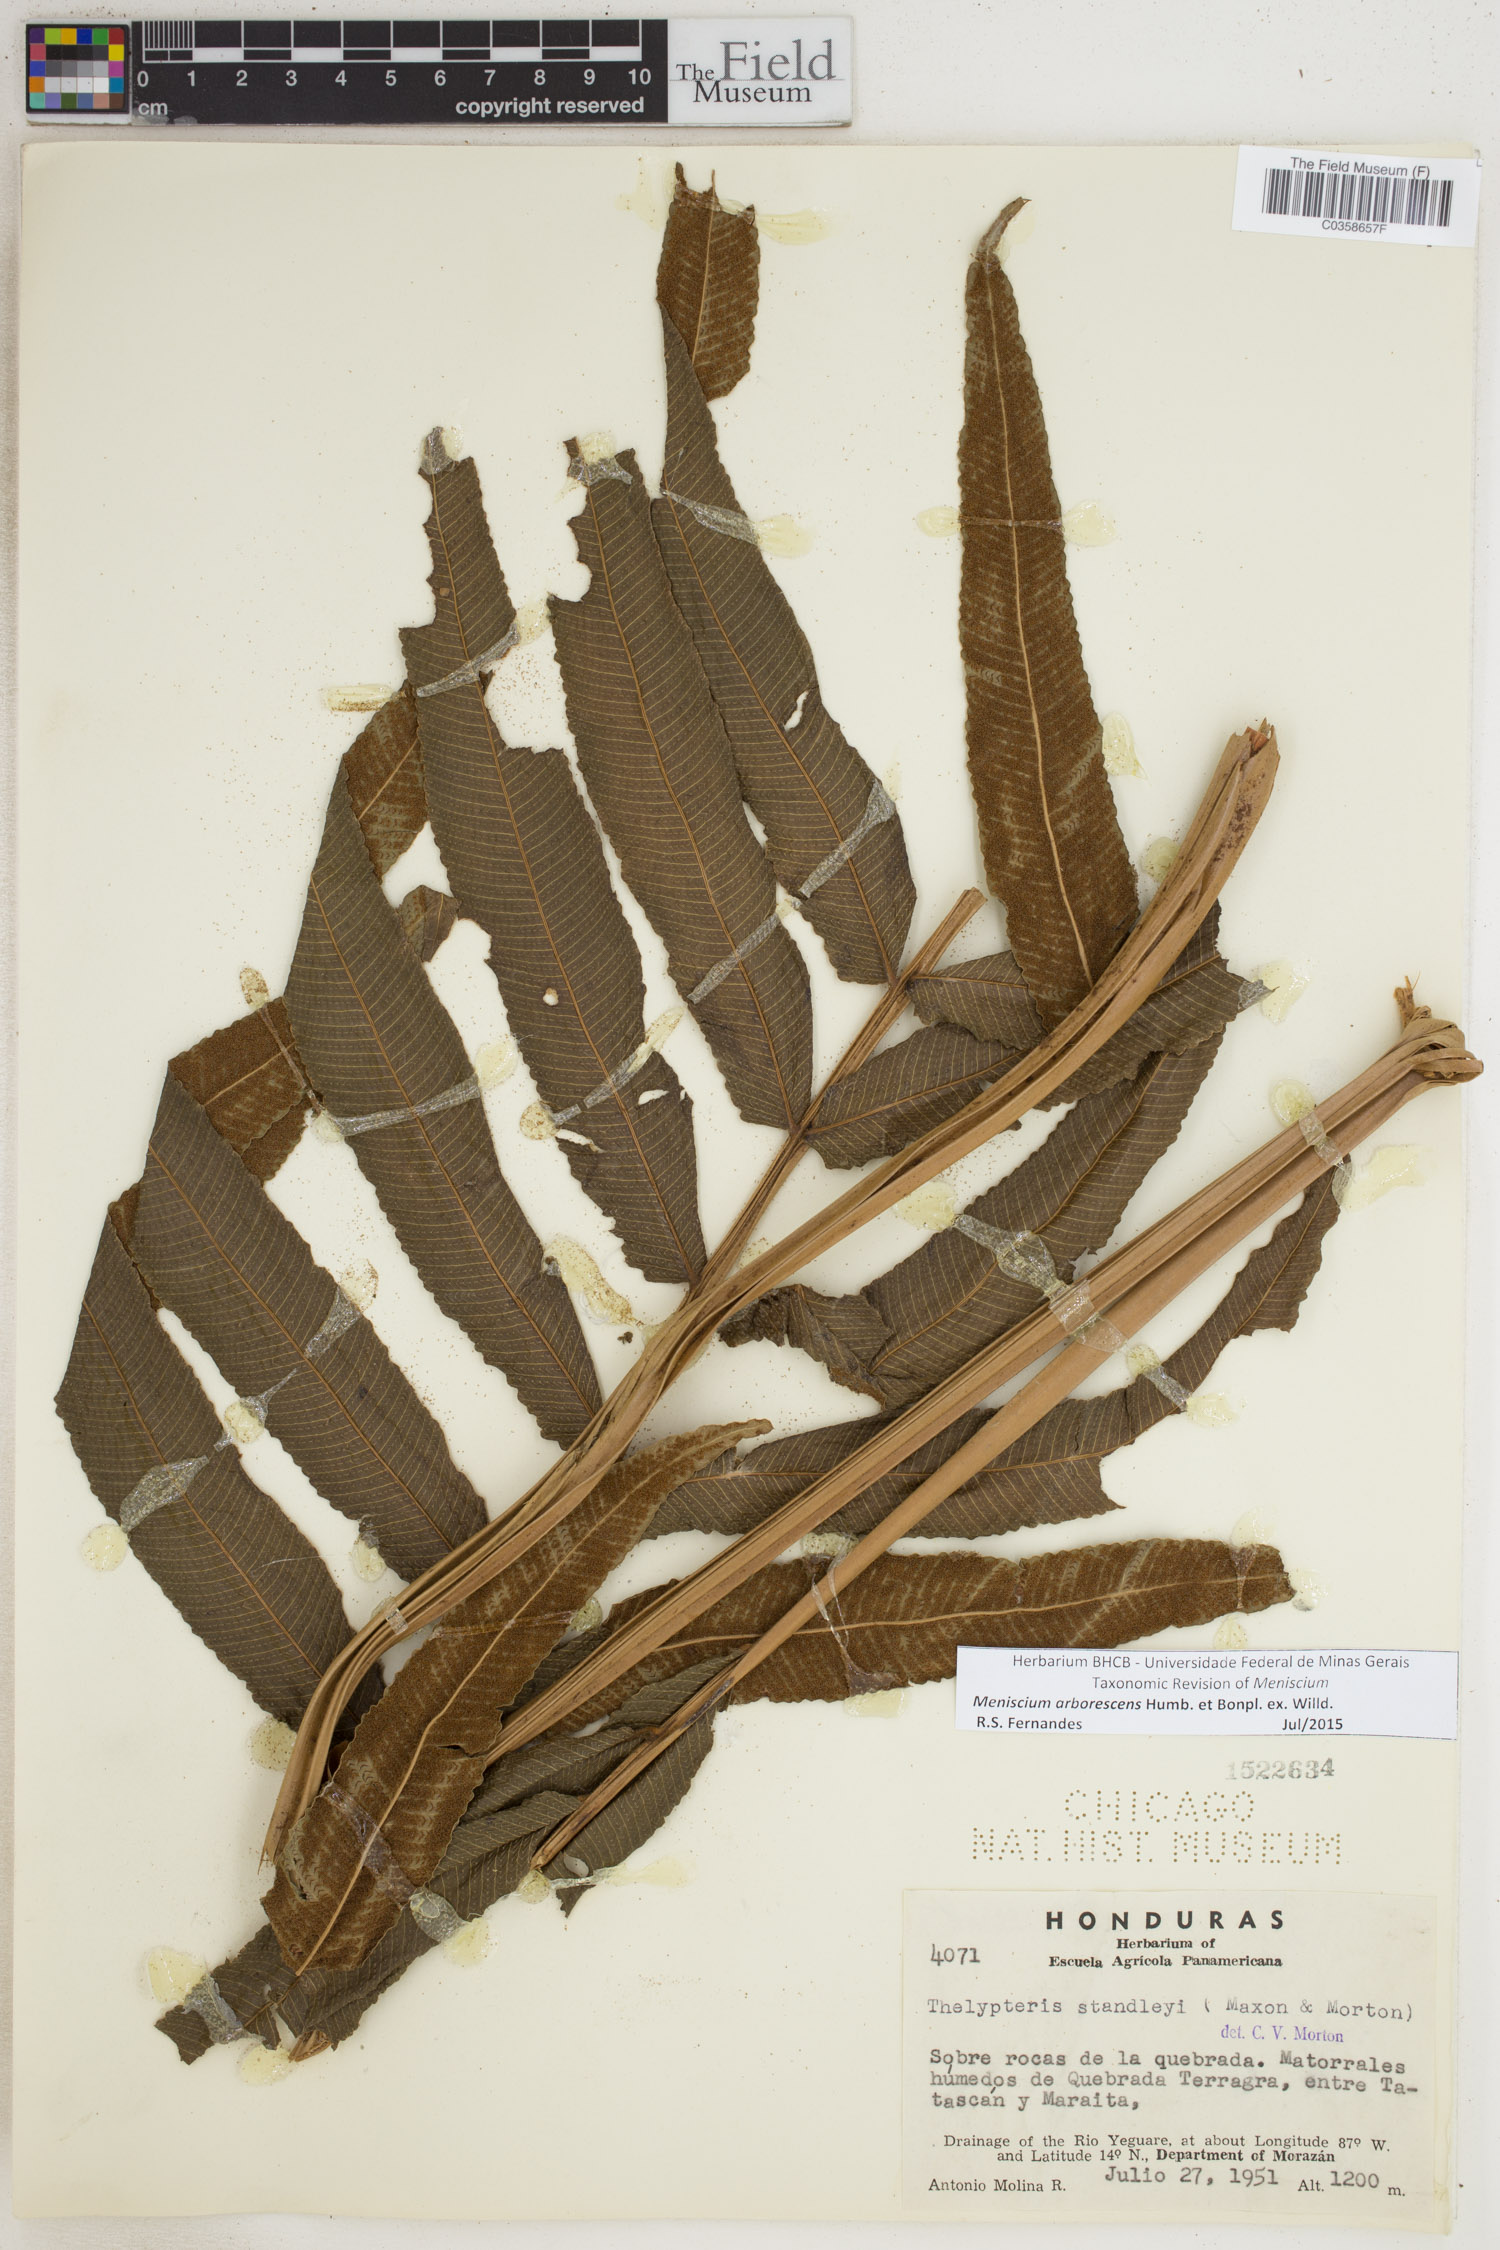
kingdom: Plantae
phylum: Tracheophyta
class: Polypodiopsida
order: Polypodiales
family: Thelypteridaceae
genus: Meniscium
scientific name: Meniscium arborescens
